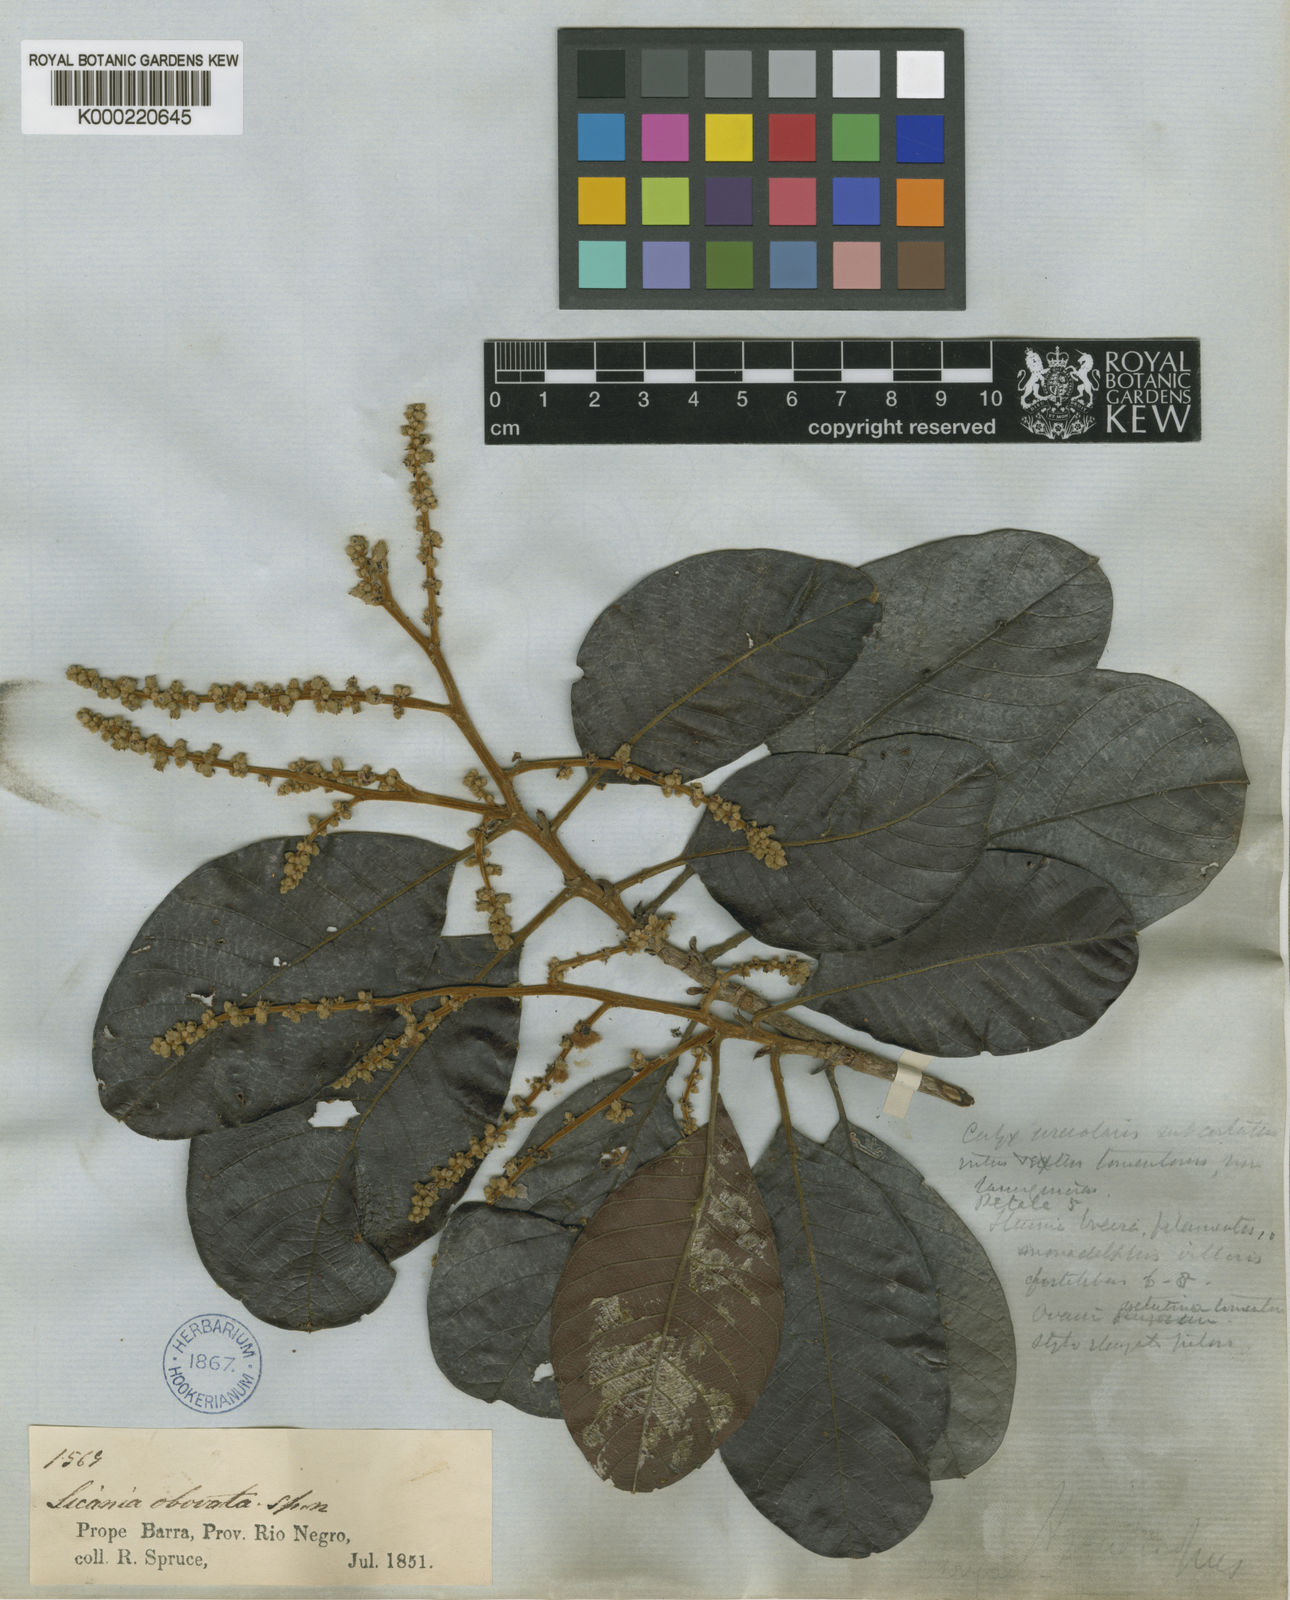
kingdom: Plantae
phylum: Tracheophyta
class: Magnoliopsida
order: Malpighiales
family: Chrysobalanaceae
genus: Hymenopus
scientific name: Hymenopus latifolius
